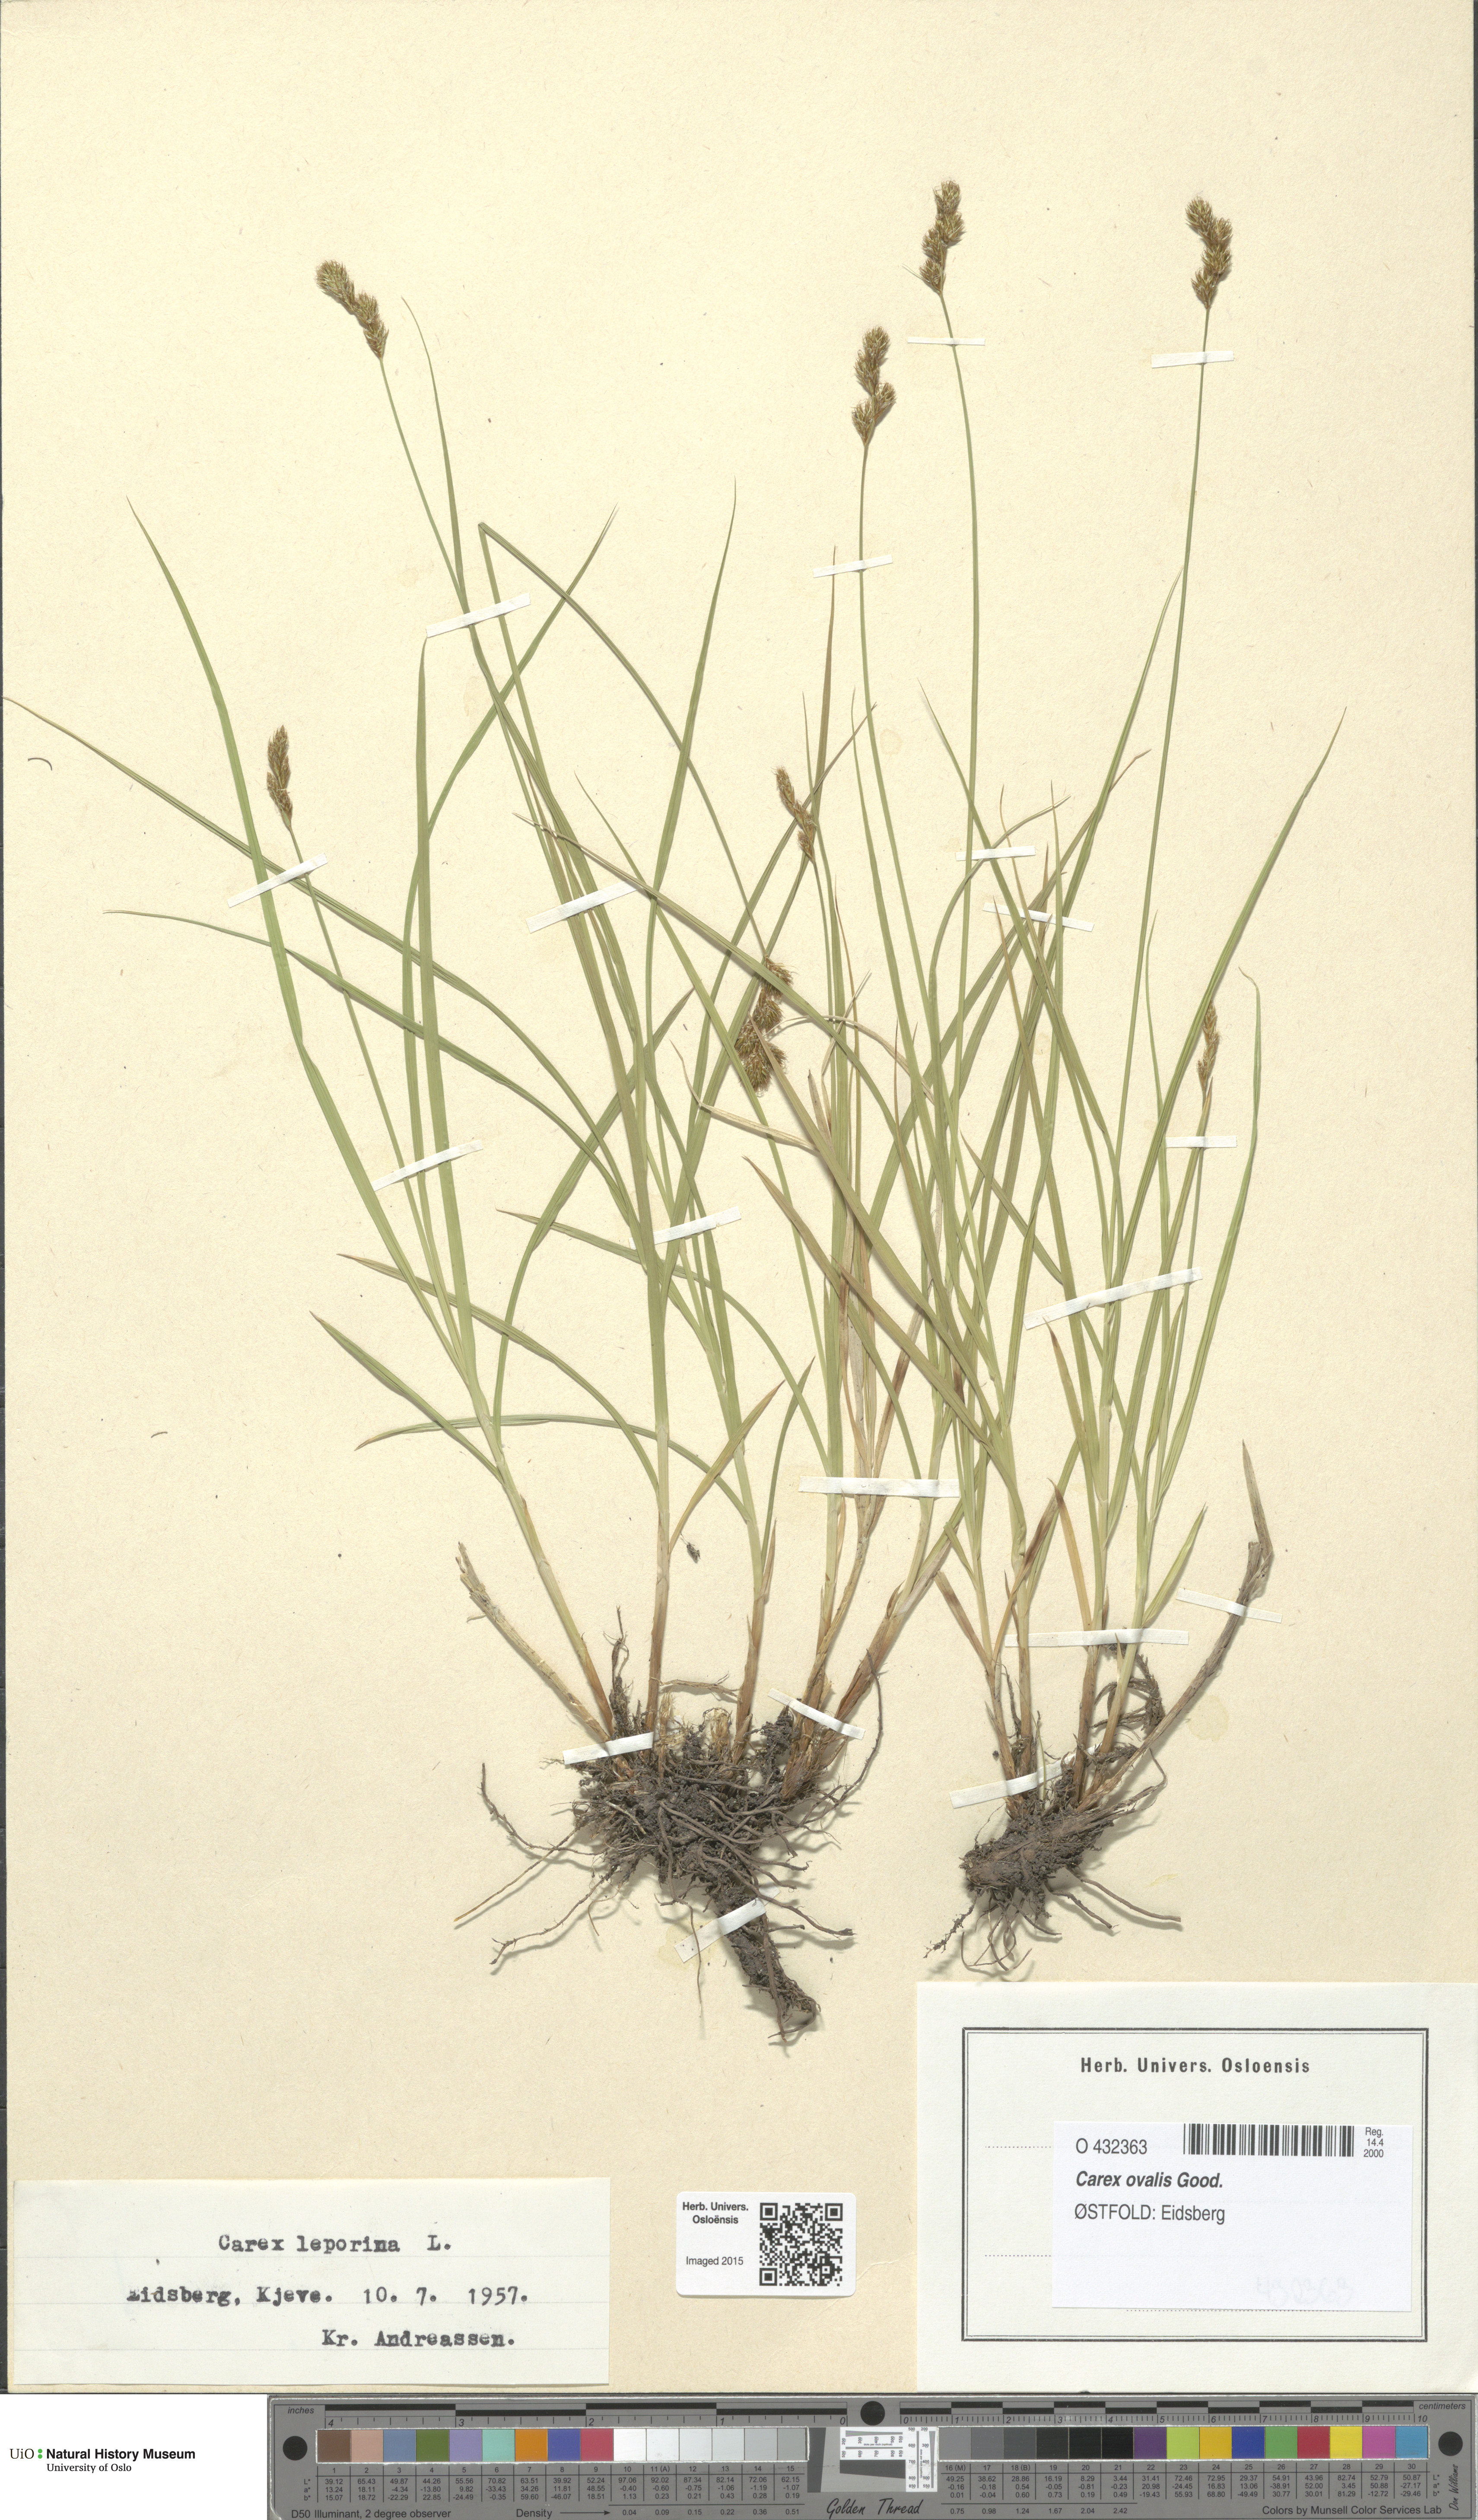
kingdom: Plantae
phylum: Tracheophyta
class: Liliopsida
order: Poales
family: Cyperaceae
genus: Carex
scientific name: Carex leporina
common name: Oval sedge
